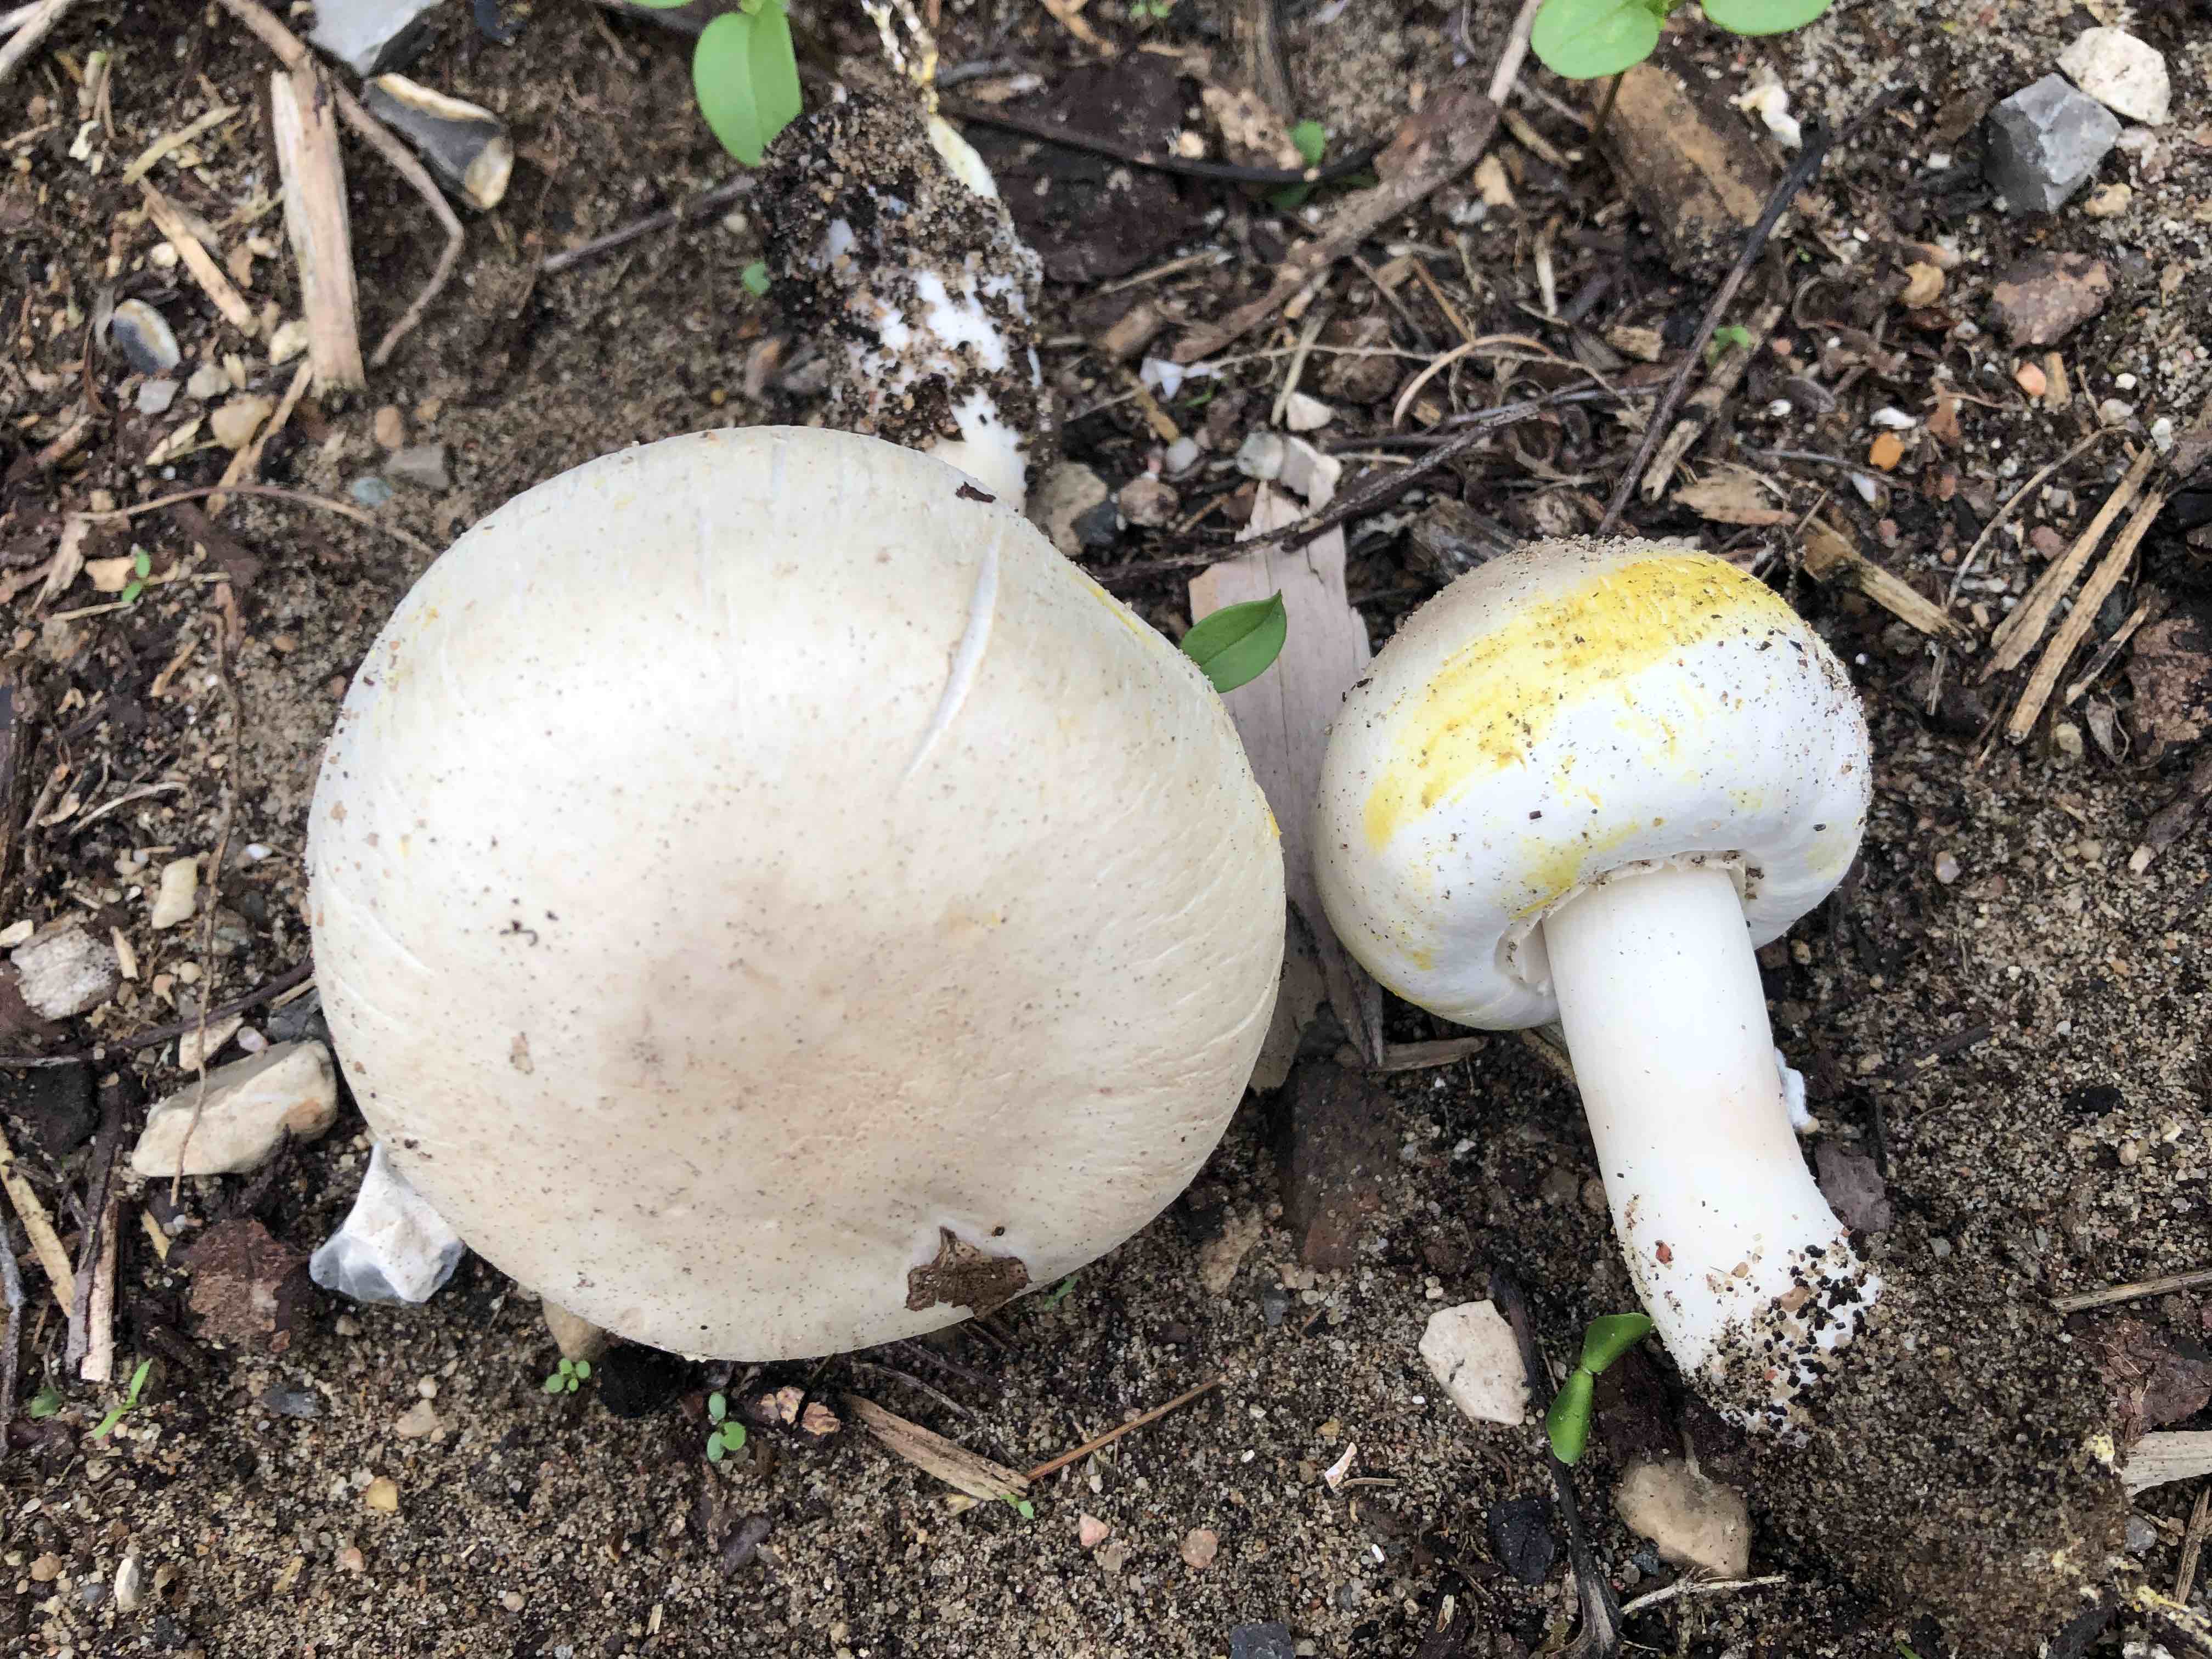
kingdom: Fungi
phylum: Basidiomycota
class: Agaricomycetes
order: Agaricales
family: Agaricaceae
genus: Agaricus
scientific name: Agaricus xanthodermus
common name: karbol-champignon
